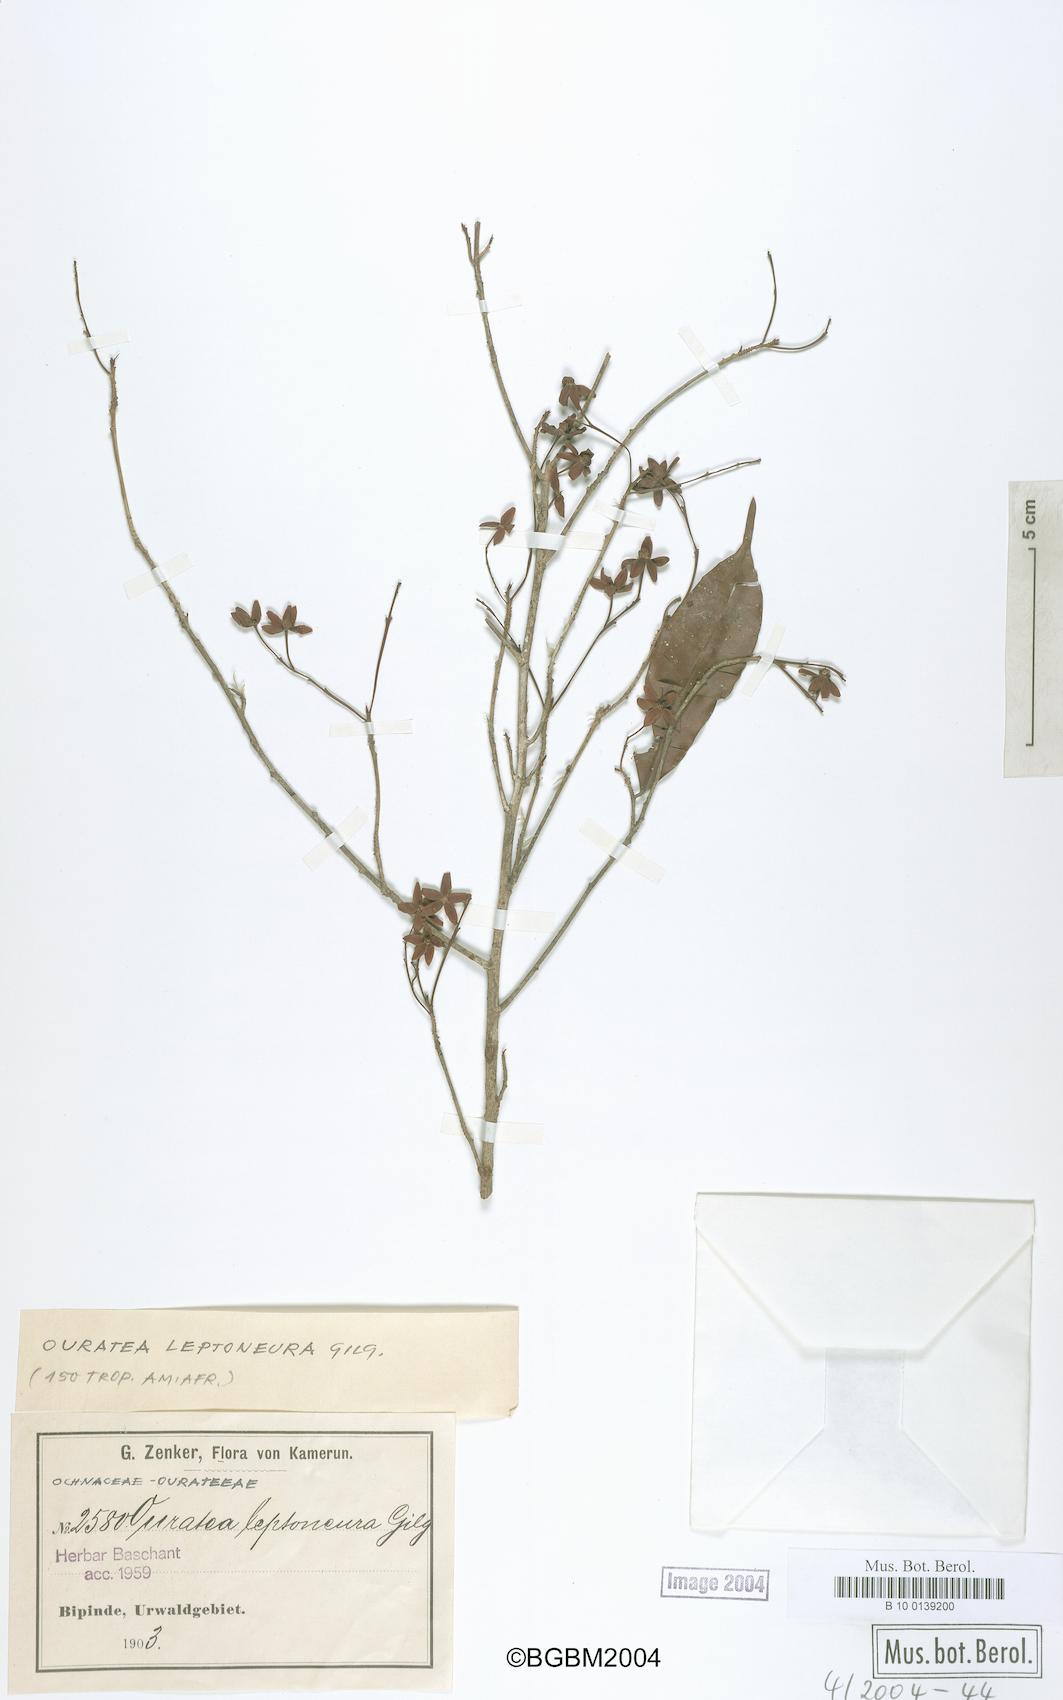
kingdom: Plantae
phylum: Tracheophyta
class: Magnoliopsida
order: Malpighiales
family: Ochnaceae
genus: Rhabdophyllum
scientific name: Rhabdophyllum welwitschii
